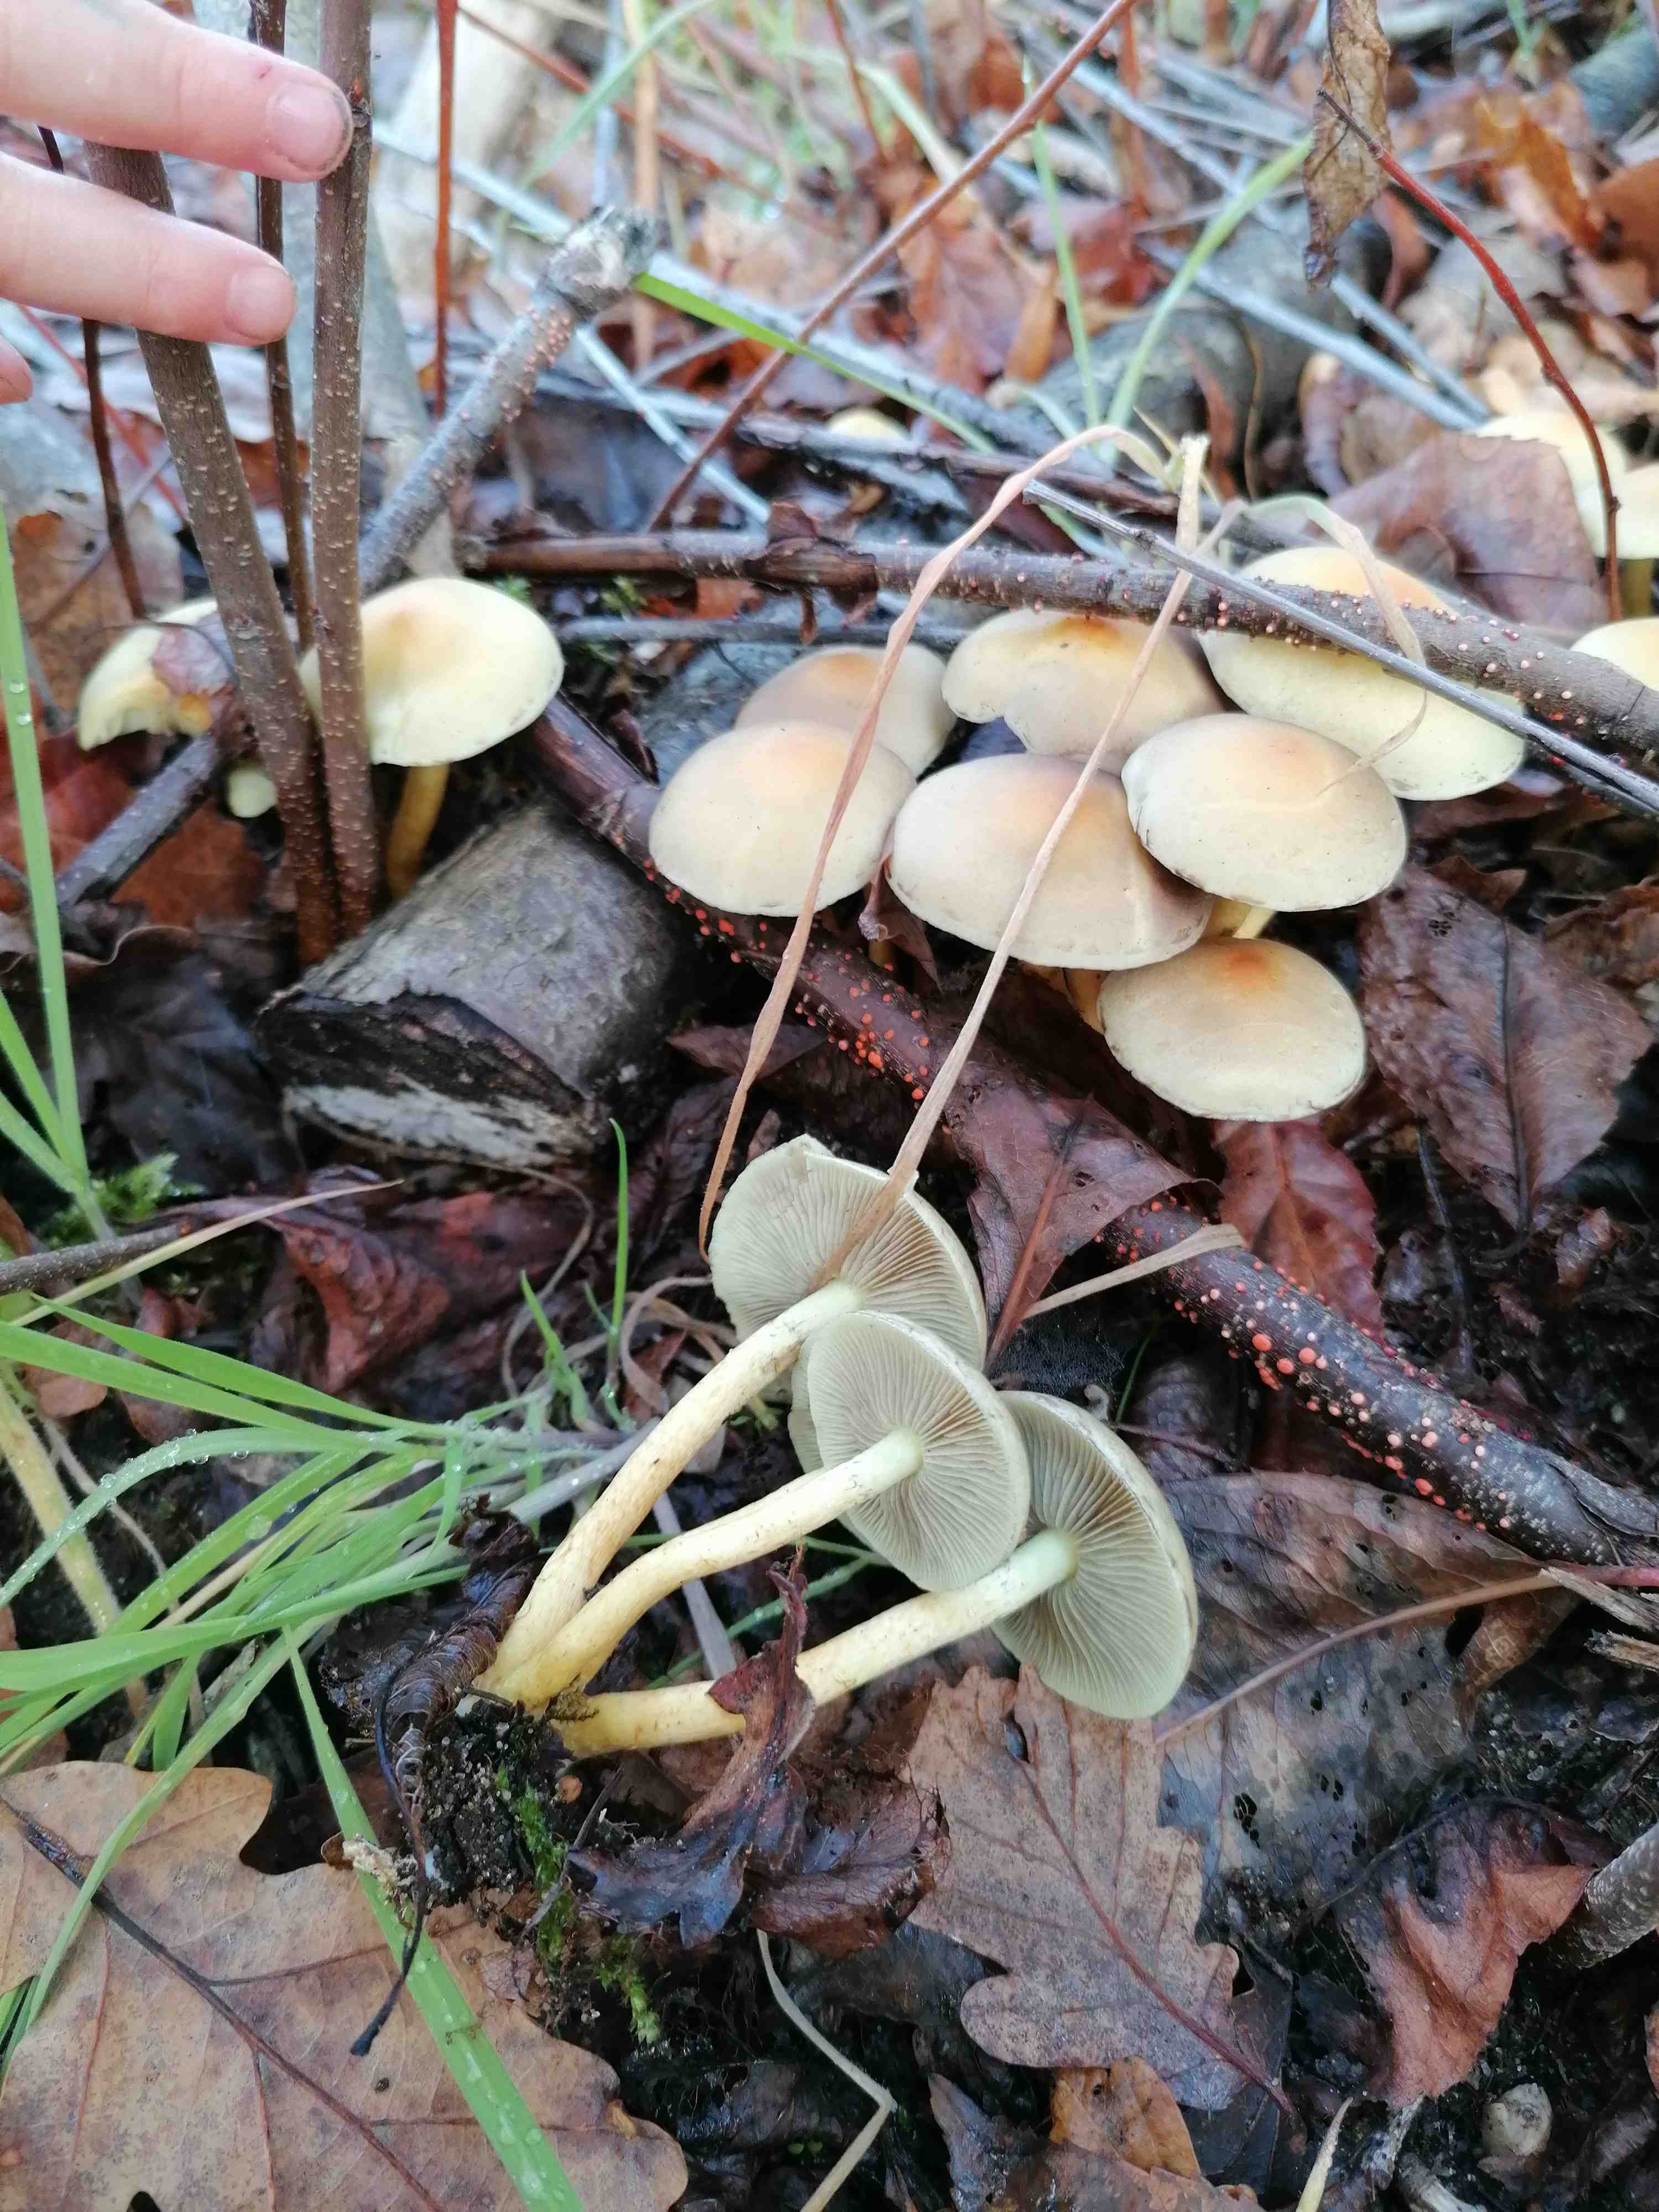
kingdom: Fungi
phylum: Basidiomycota
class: Agaricomycetes
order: Agaricales
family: Strophariaceae
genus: Hypholoma
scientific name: Hypholoma fasciculare
